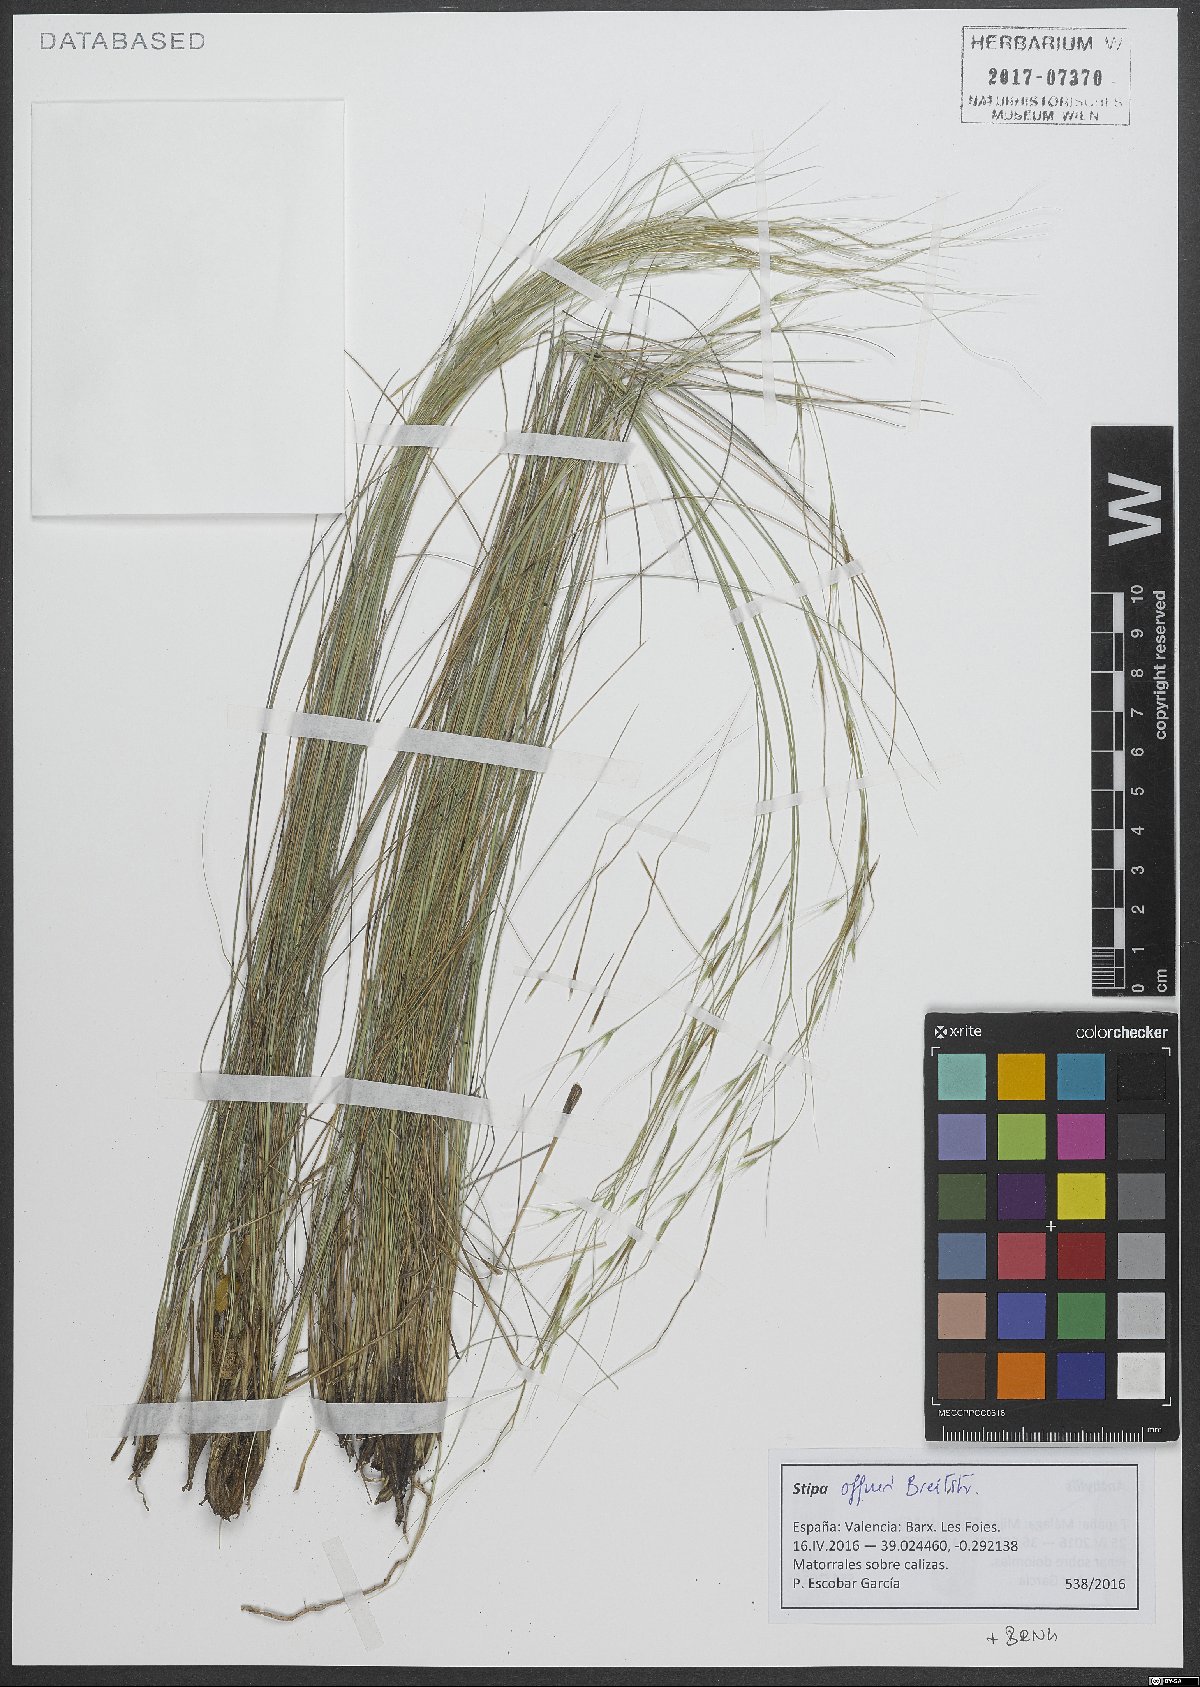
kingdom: Plantae
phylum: Tracheophyta
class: Liliopsida
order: Poales
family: Poaceae
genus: Stipa
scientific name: Stipa offneri
